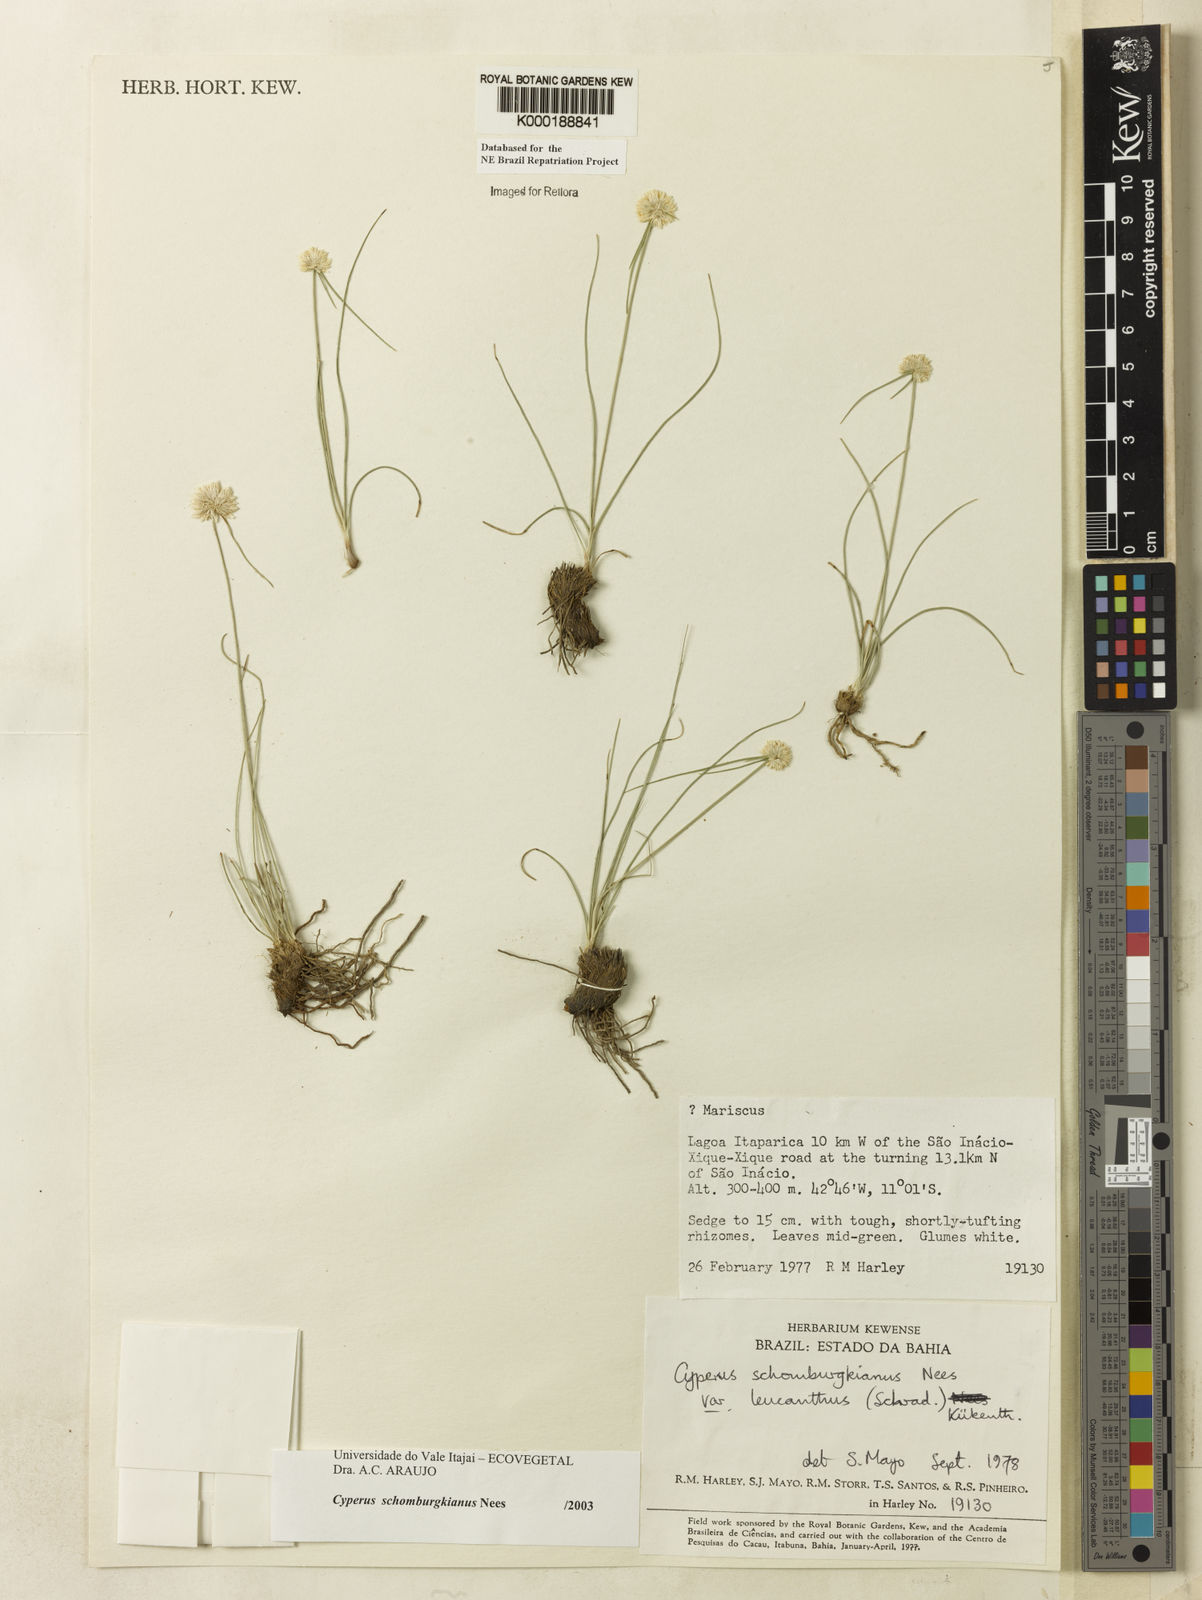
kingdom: Plantae
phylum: Tracheophyta
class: Liliopsida
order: Poales
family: Cyperaceae
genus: Cyperus
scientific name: Cyperus schomburgkianus
